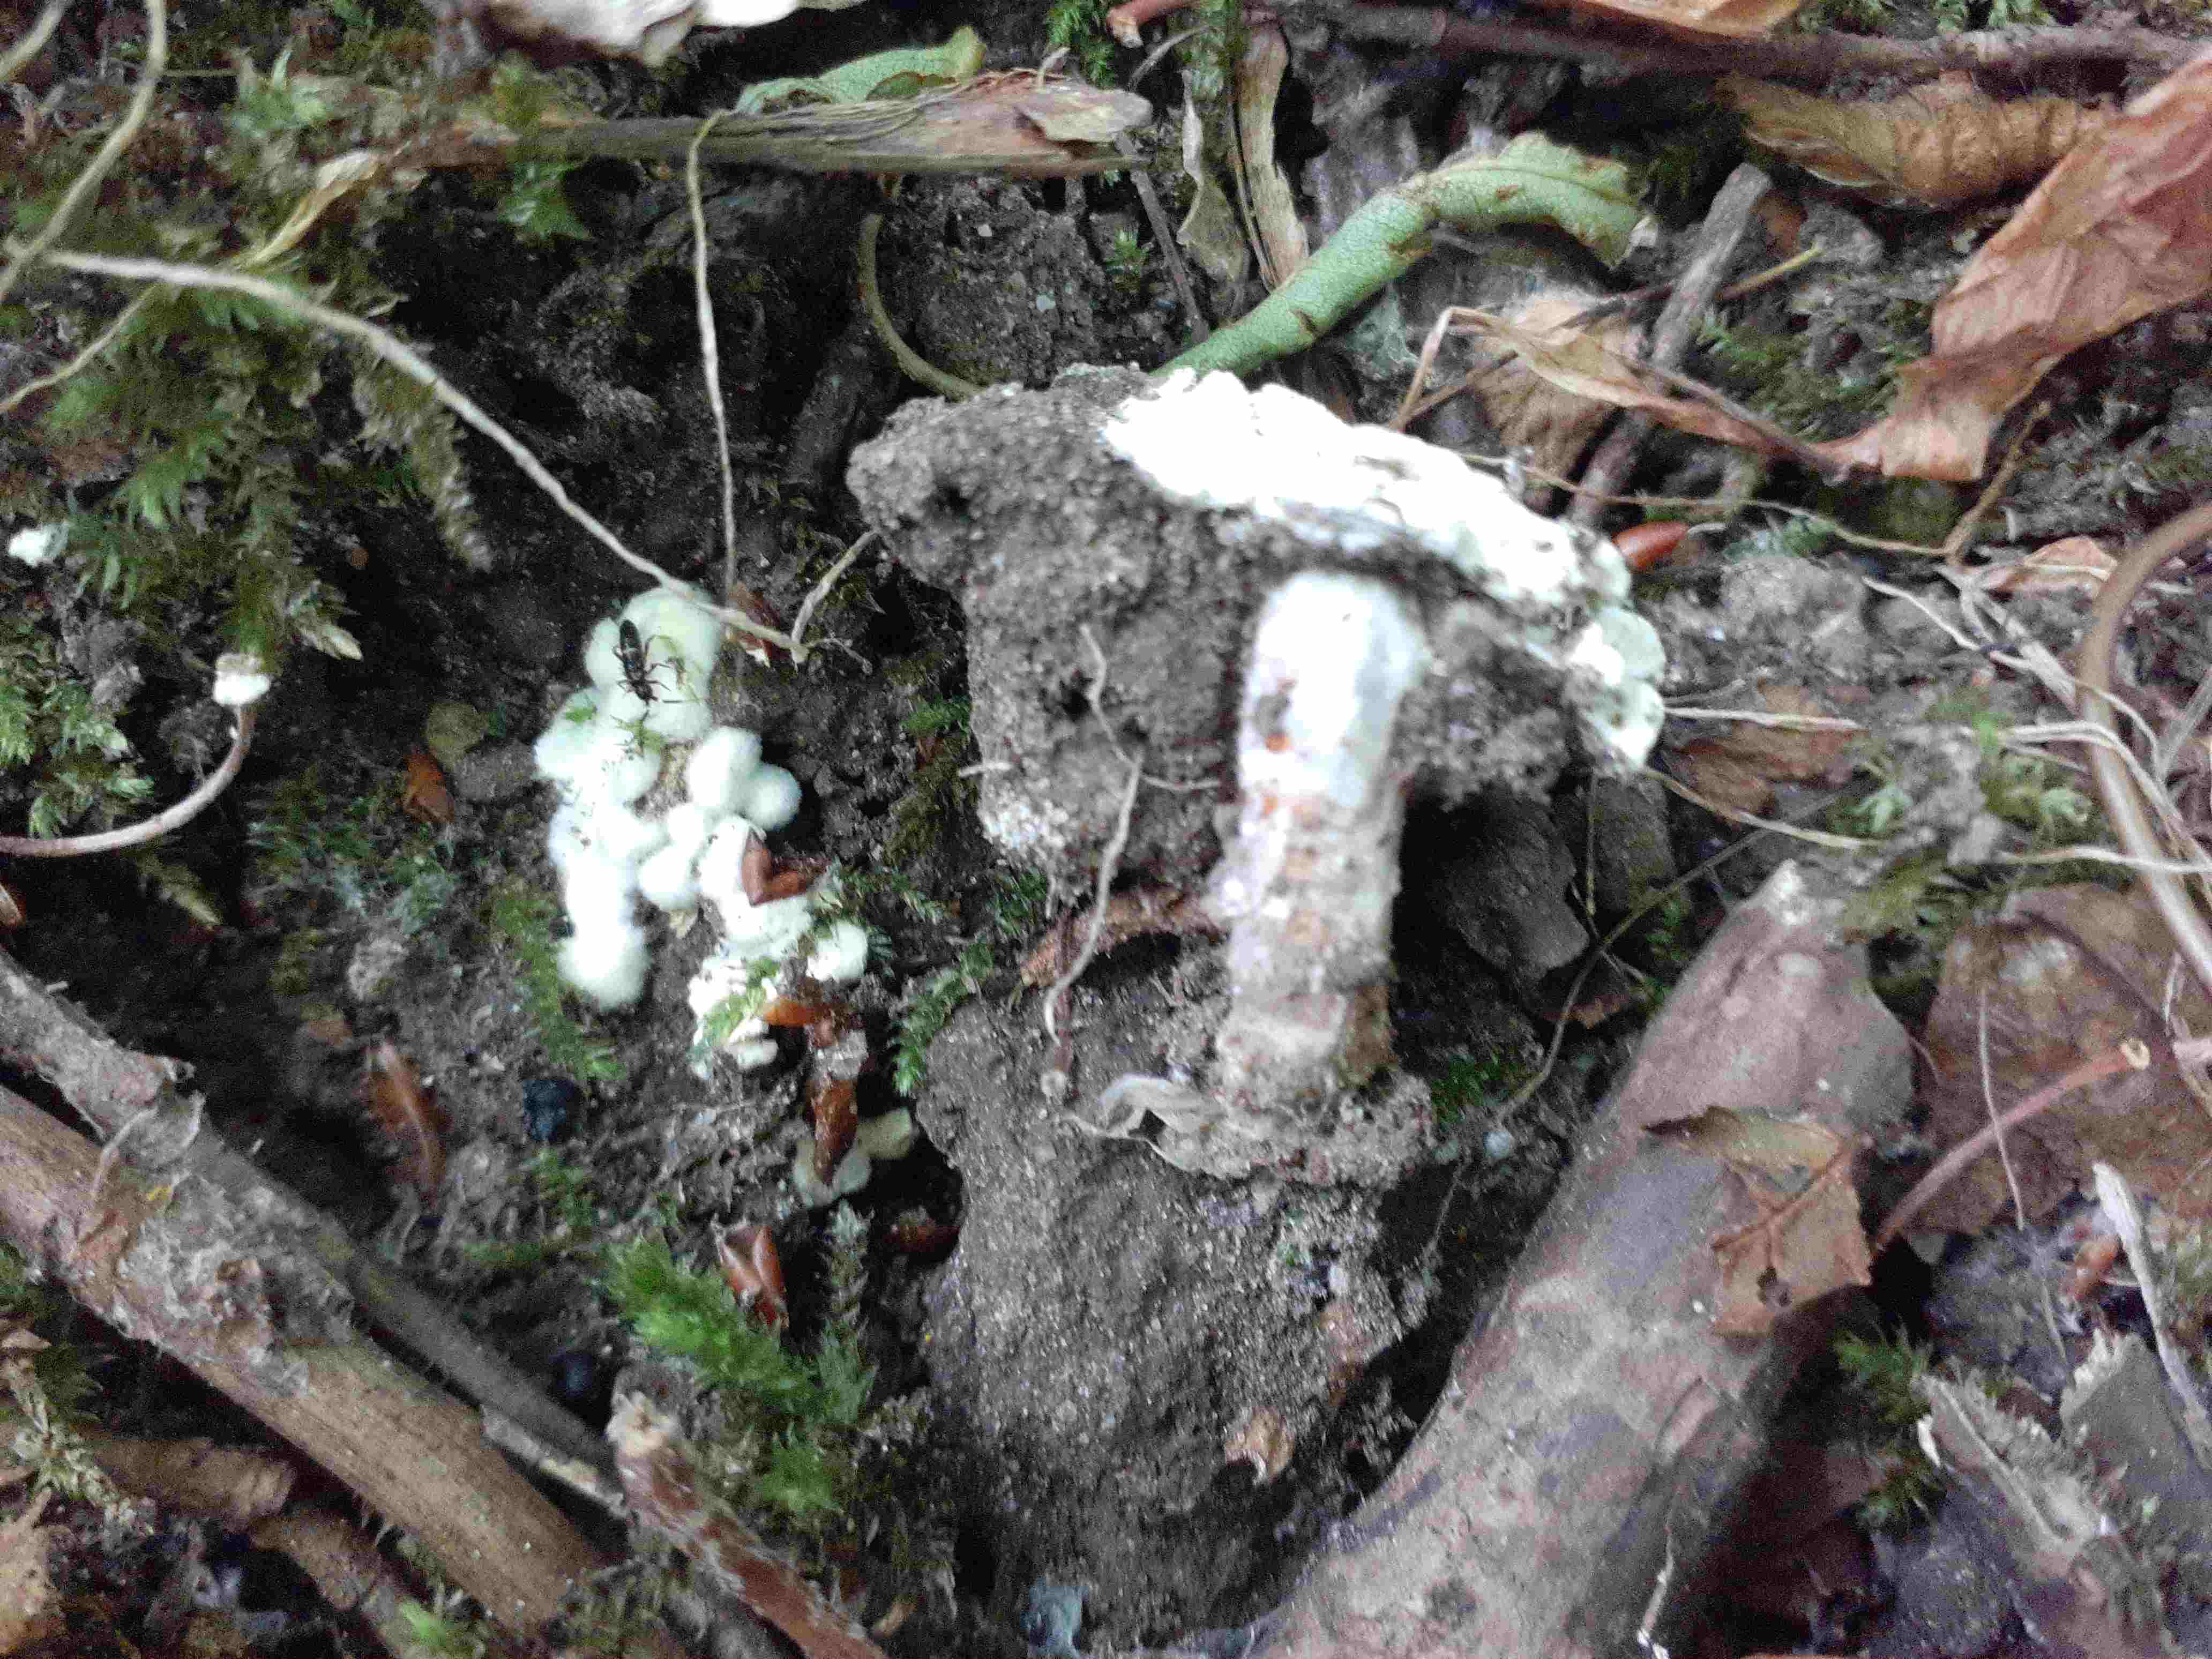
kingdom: Fungi
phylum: Ascomycota
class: Sordariomycetes
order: Hypocreales
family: Cordycipitaceae
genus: Beauveria
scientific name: Beauveria bassiana
